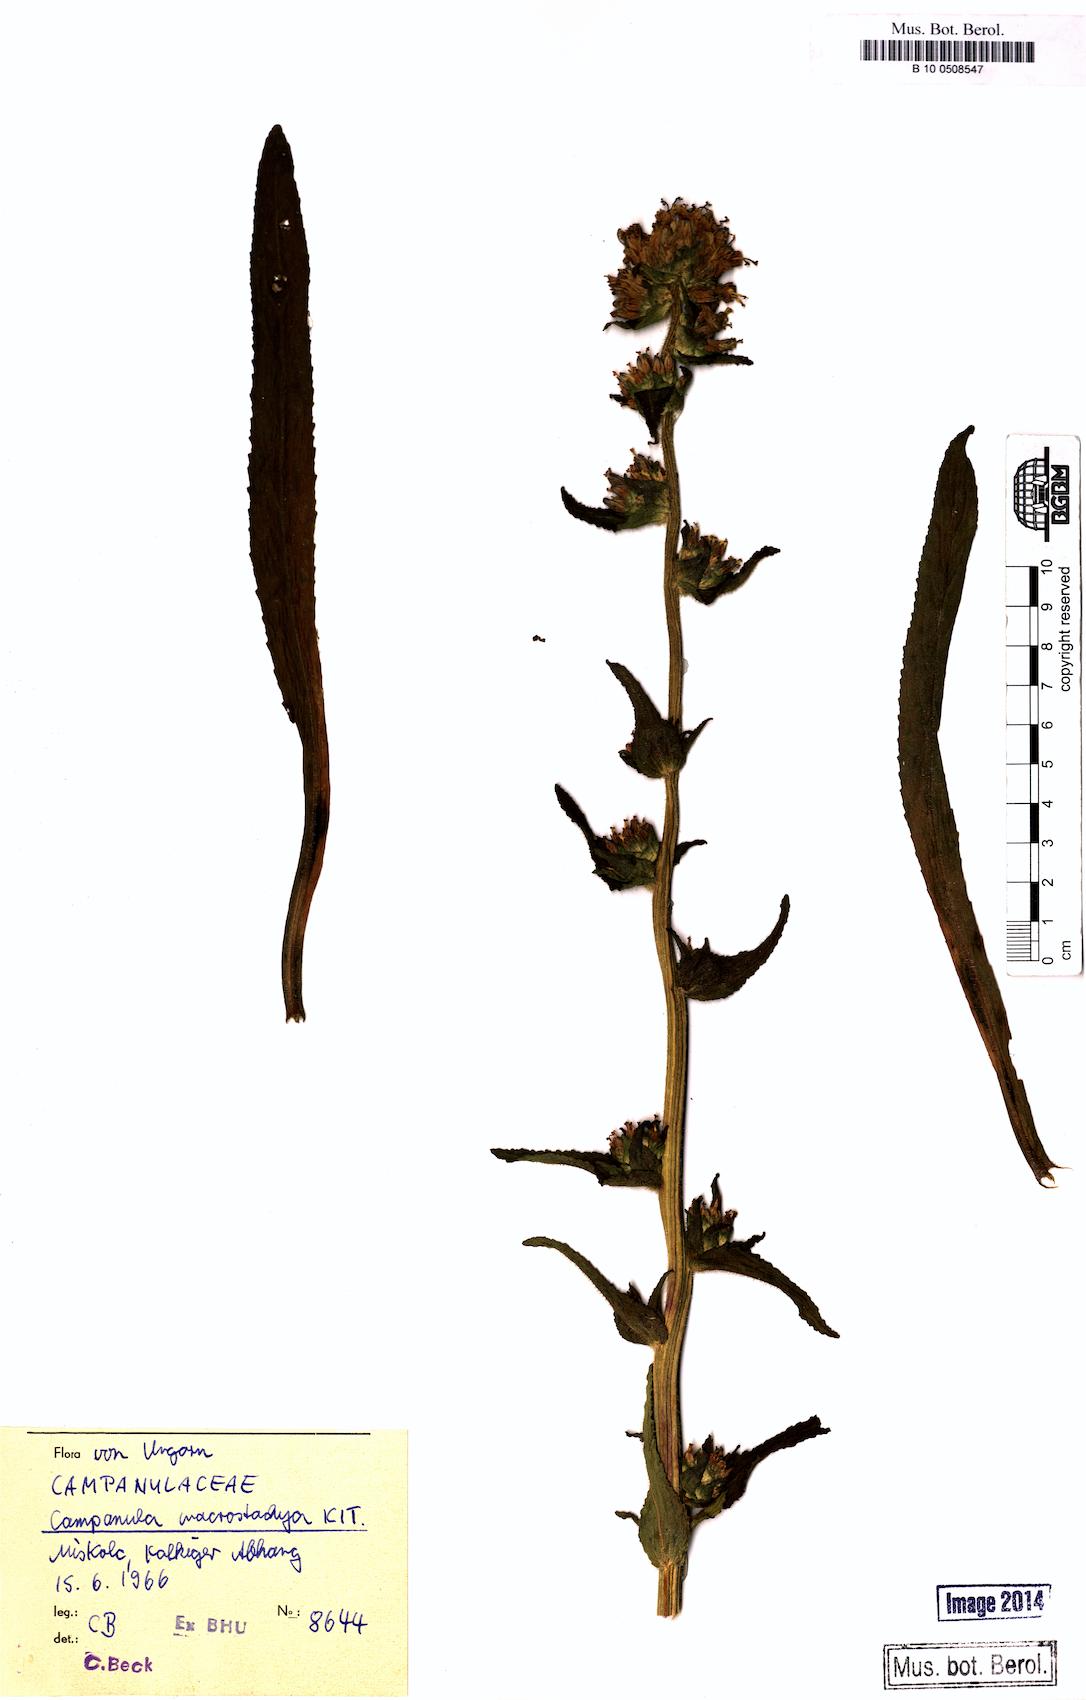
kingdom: Plantae
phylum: Tracheophyta
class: Magnoliopsida
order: Asterales
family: Campanulaceae
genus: Campanula
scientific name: Campanula macrostachya
